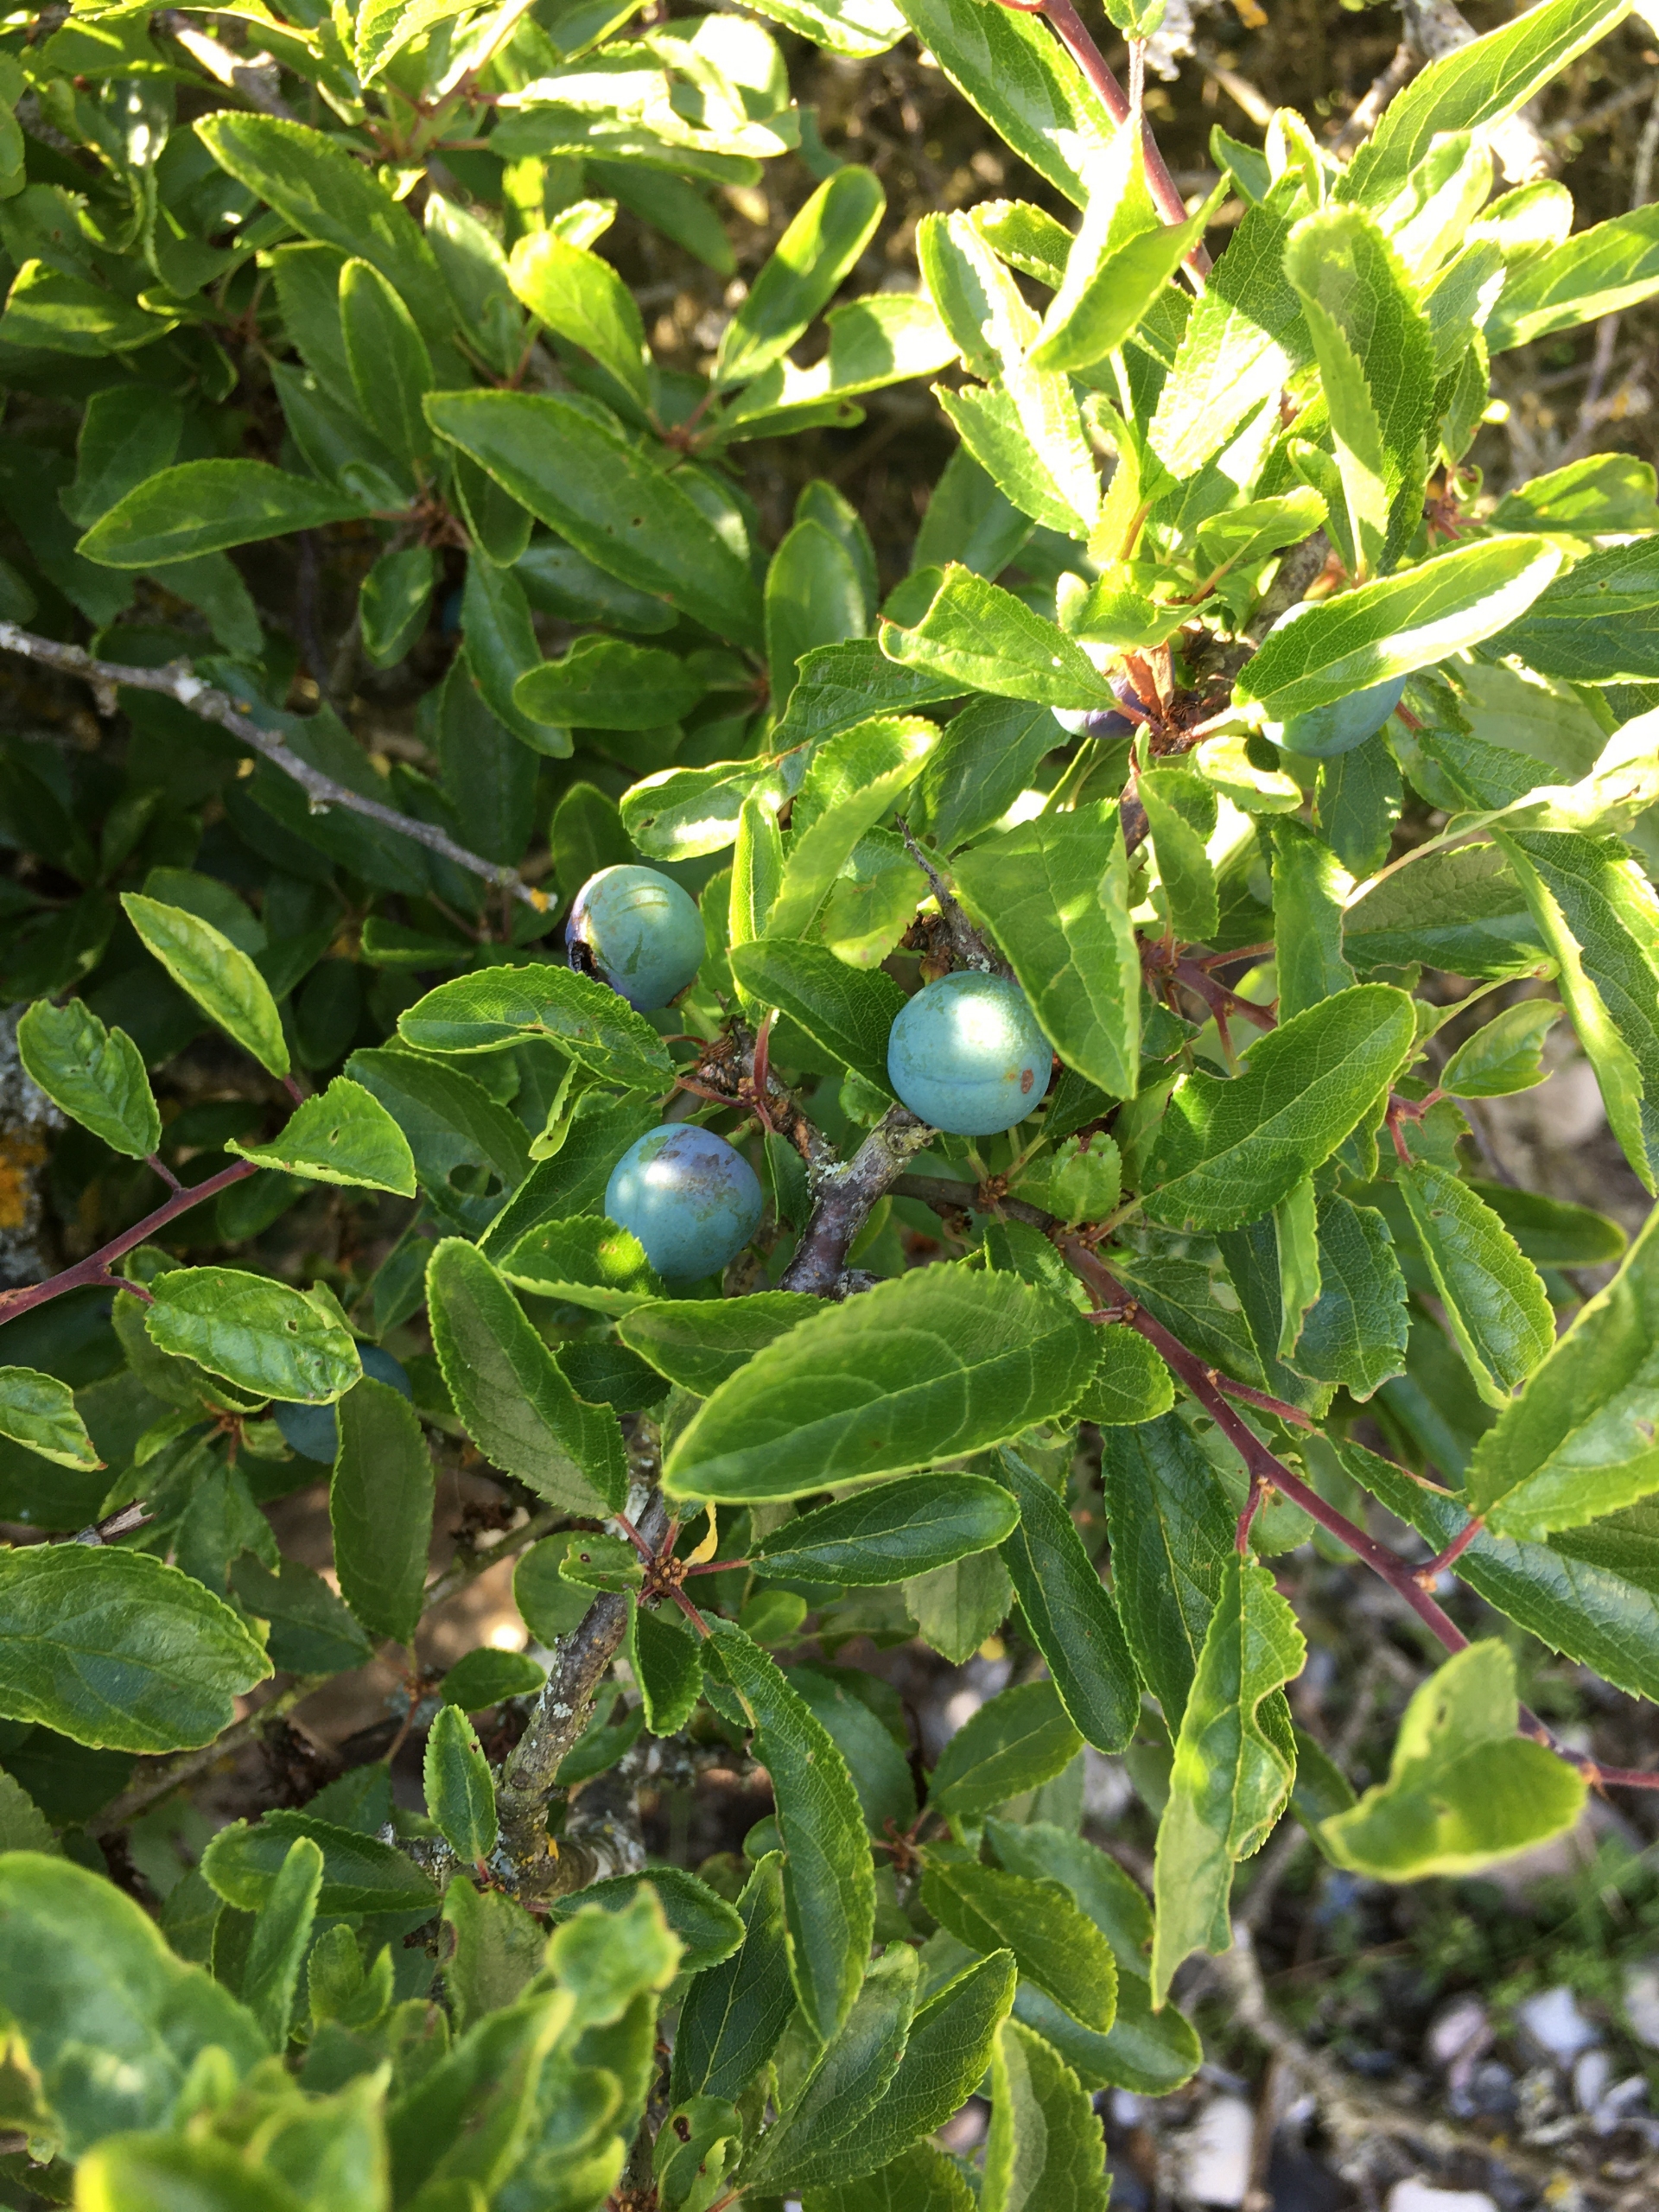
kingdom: Plantae
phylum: Tracheophyta
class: Magnoliopsida
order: Rosales
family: Rosaceae
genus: Prunus
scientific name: Prunus spinosa
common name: Slåen
